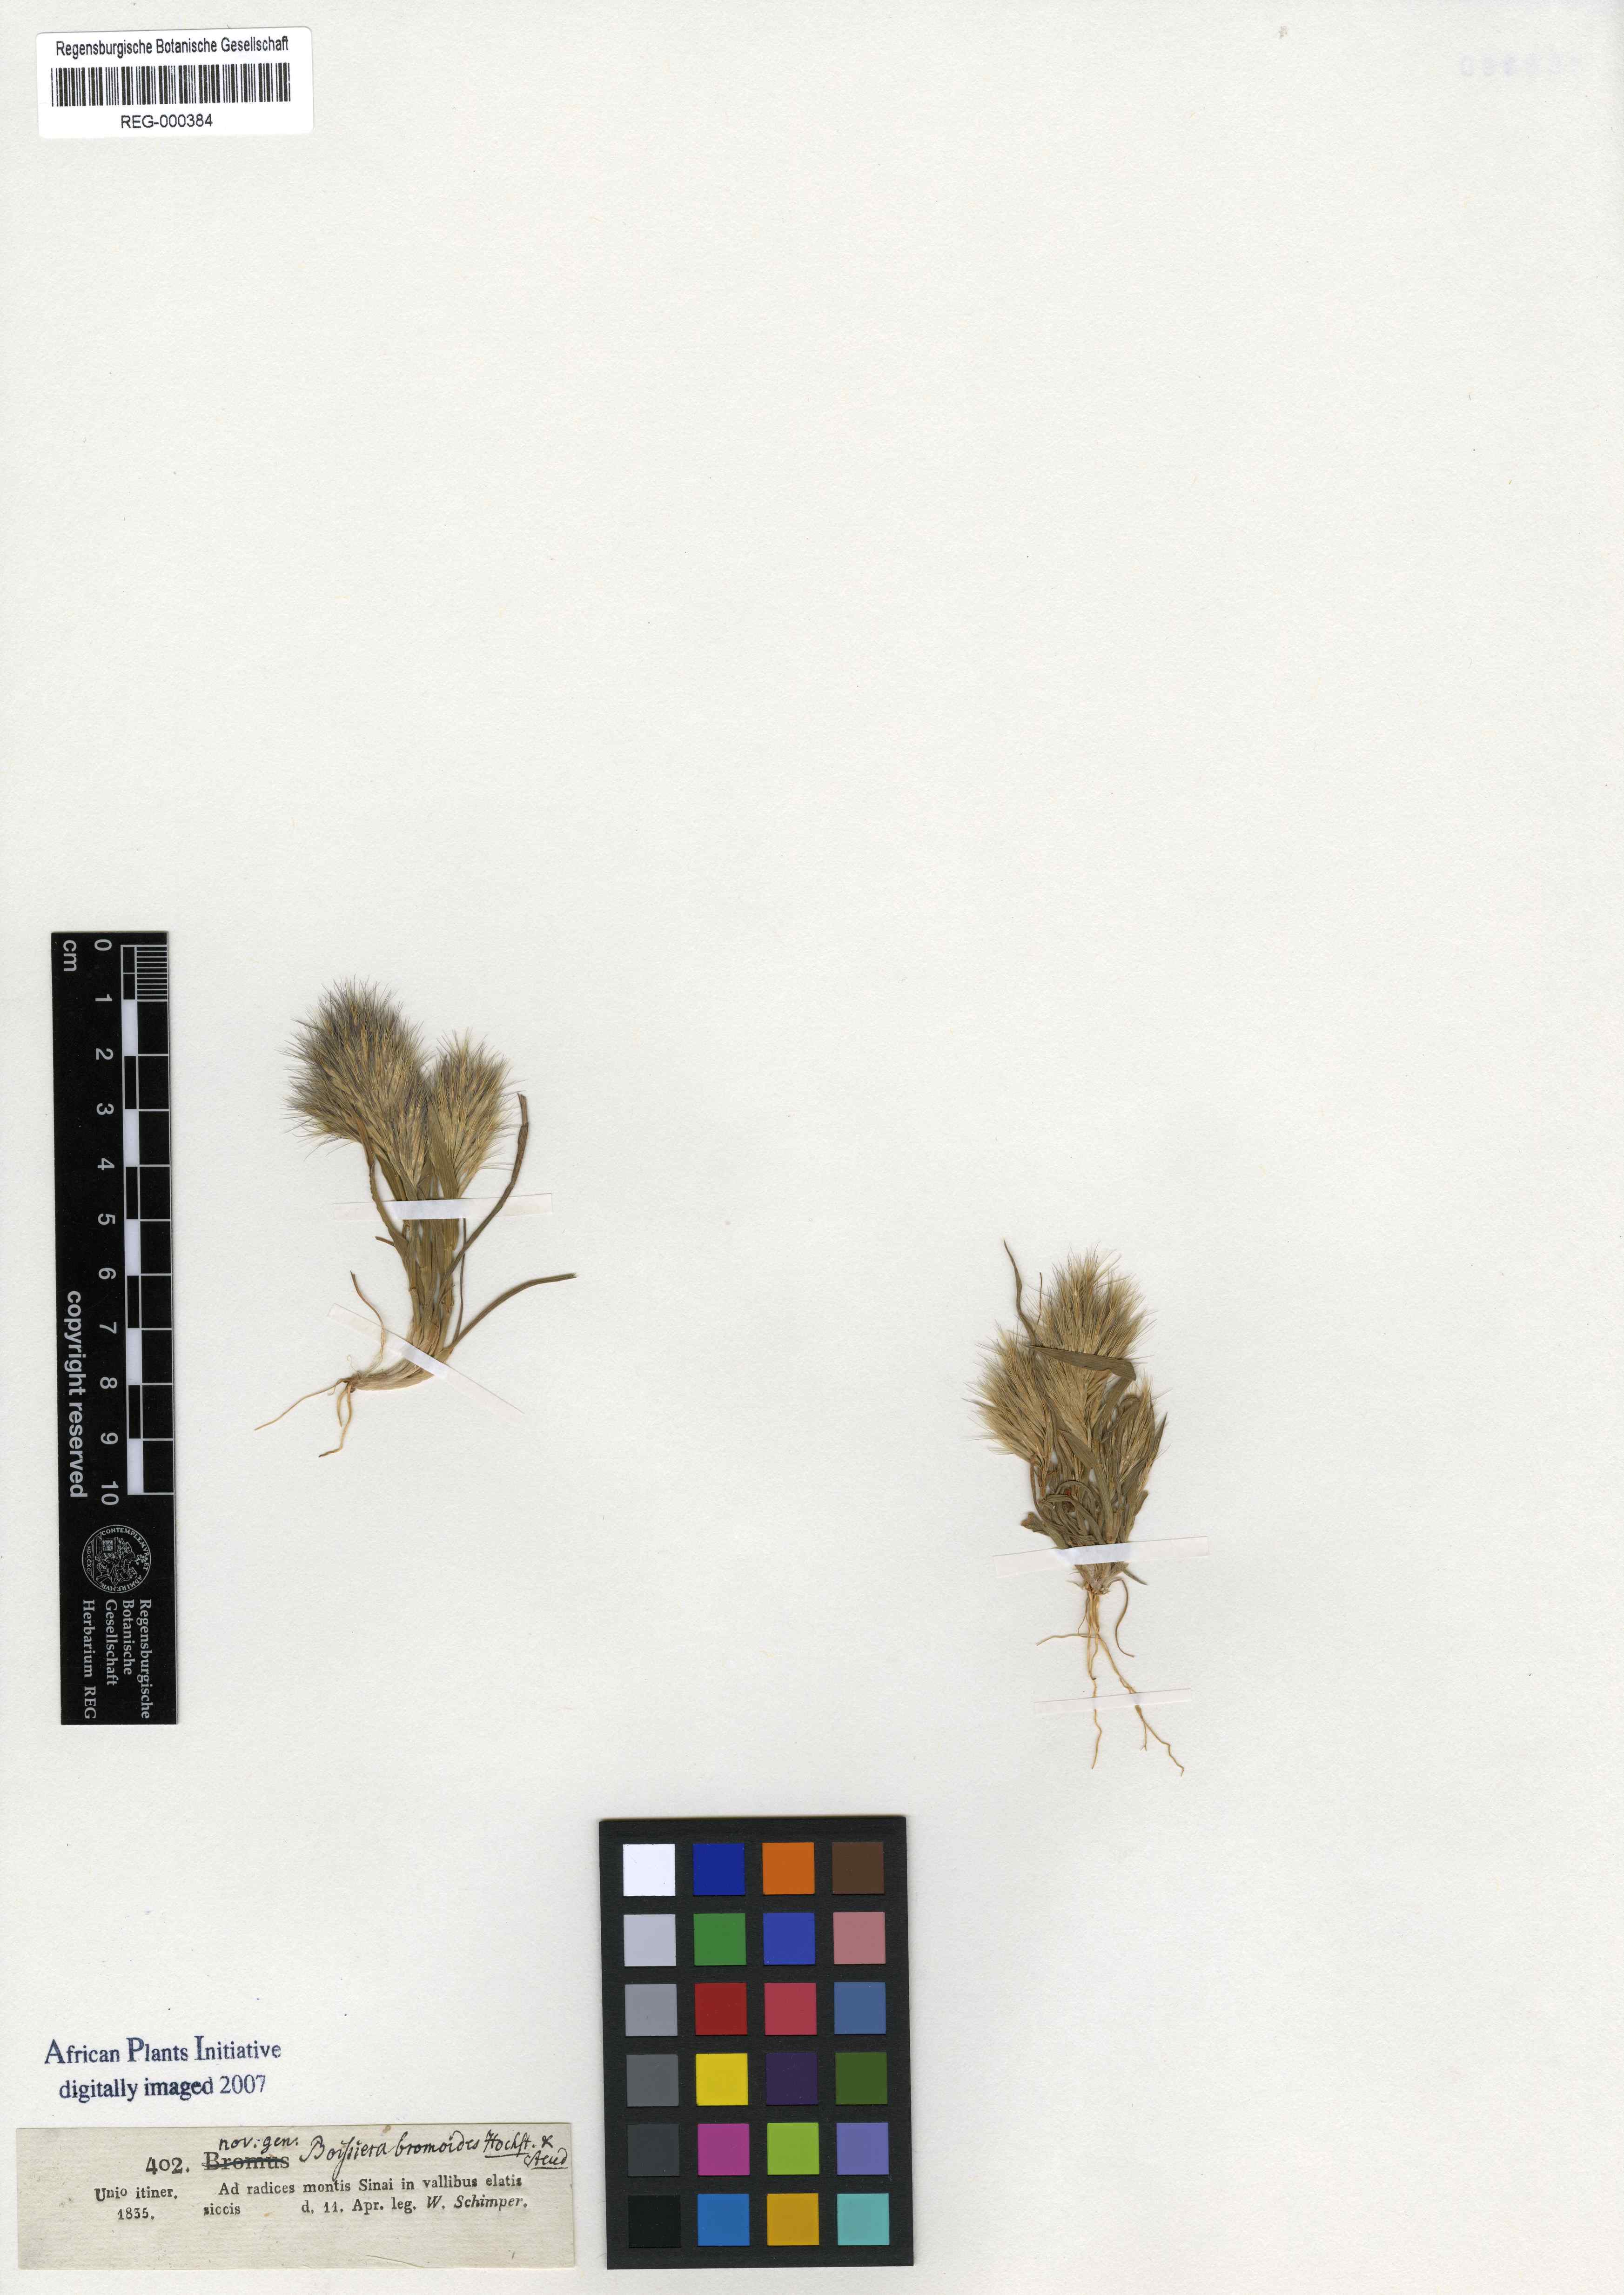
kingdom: Plantae
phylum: Tracheophyta
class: Liliopsida
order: Poales
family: Poaceae
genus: Bromus
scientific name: Bromus pumilio
